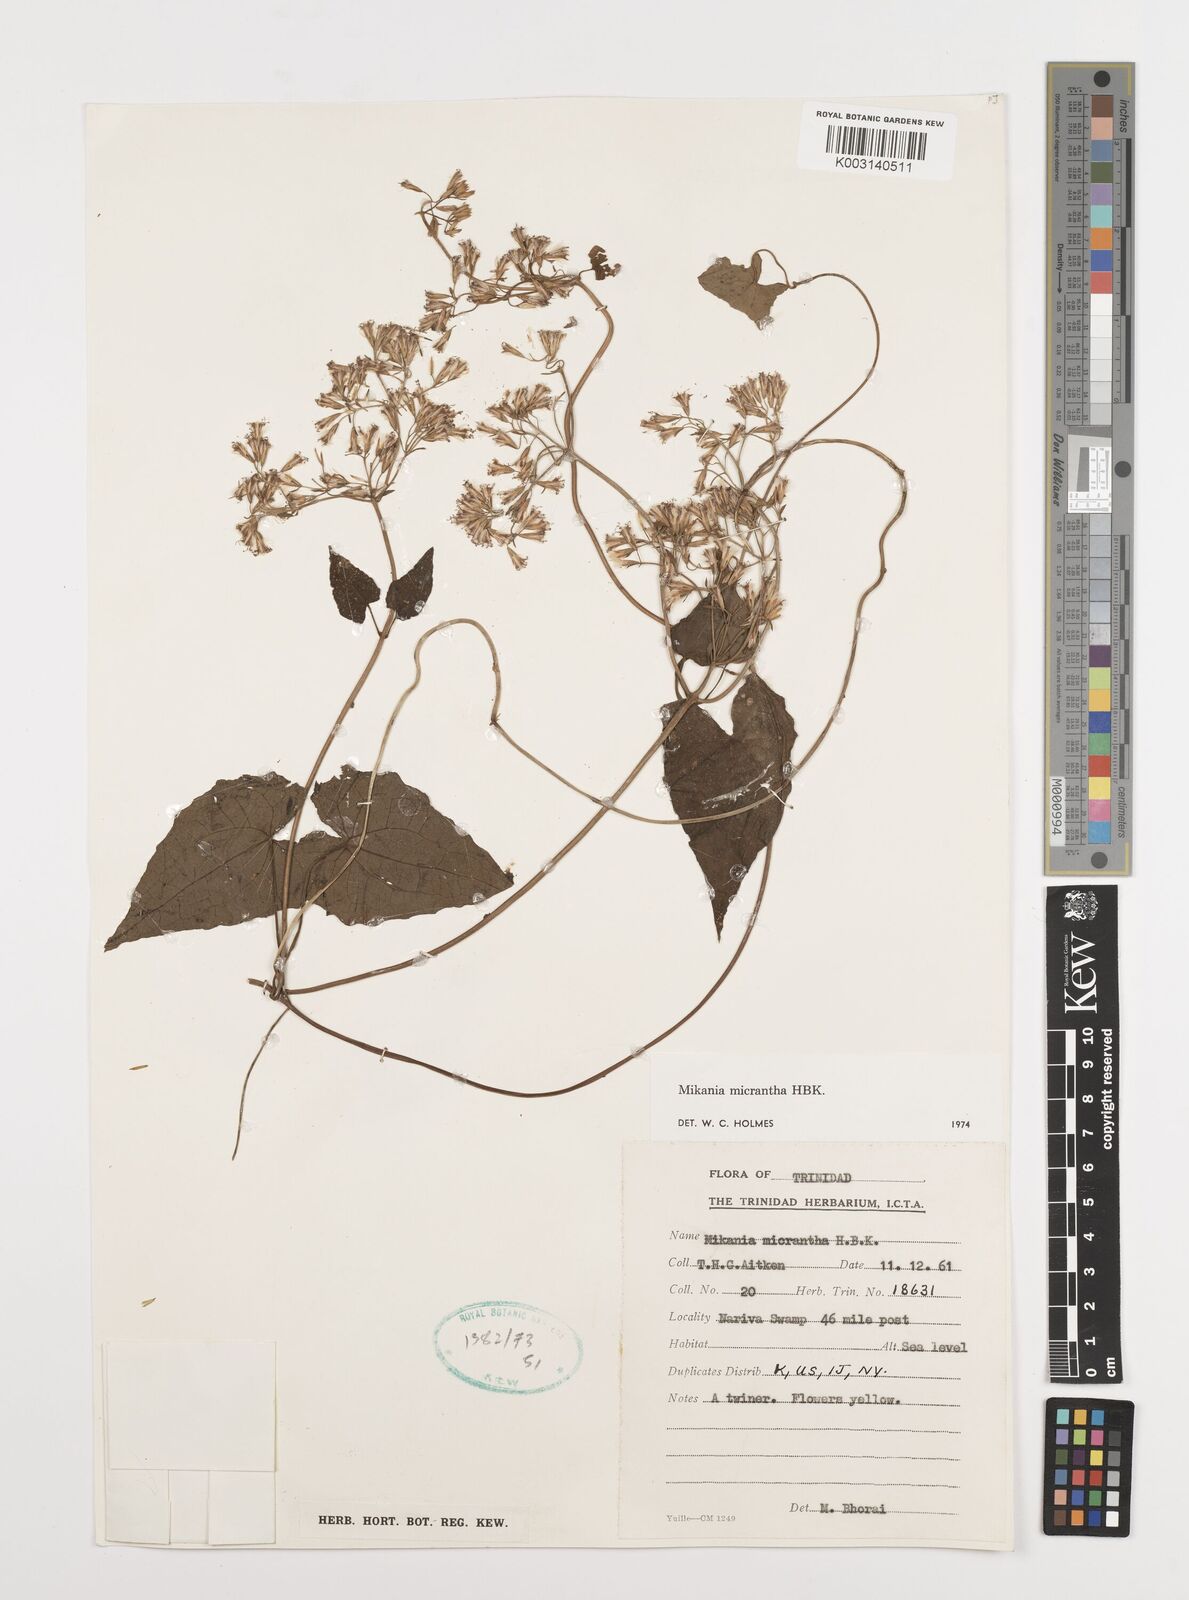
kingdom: Plantae
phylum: Tracheophyta
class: Magnoliopsida
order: Asterales
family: Asteraceae
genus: Mikania
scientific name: Mikania micrantha
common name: Mile-a-minute
